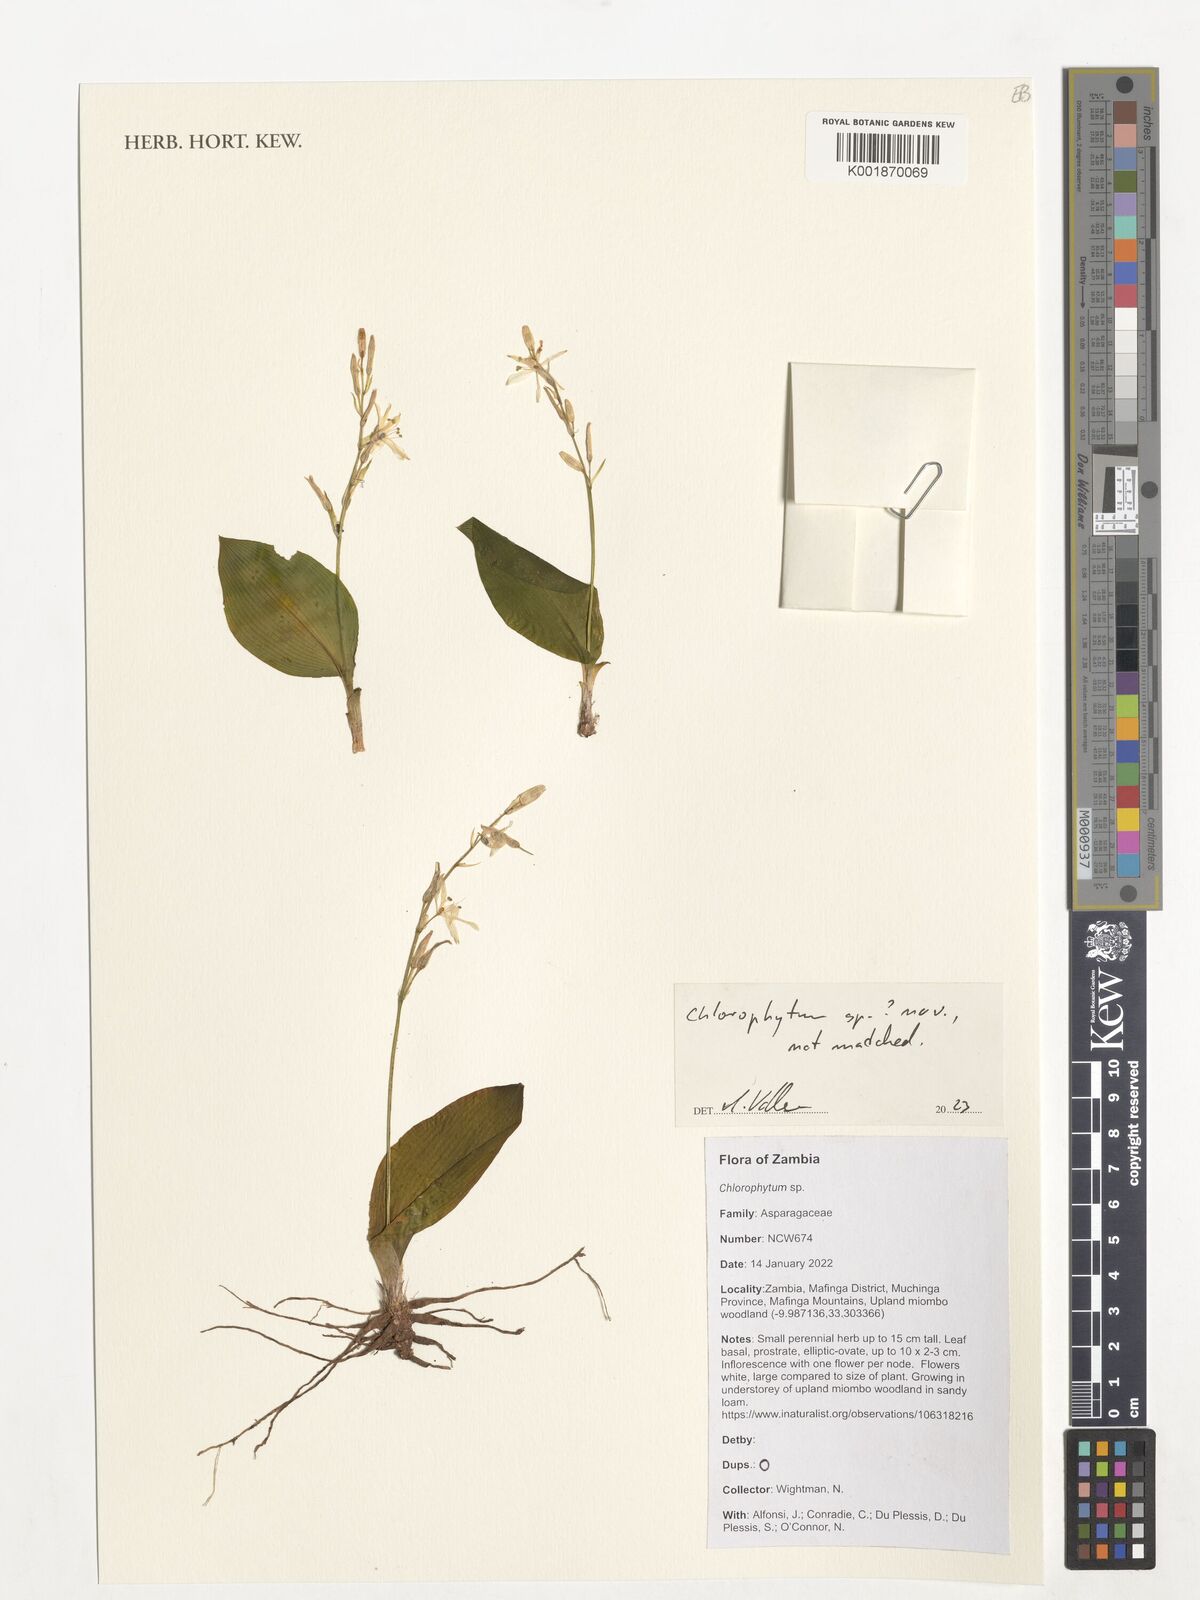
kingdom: Plantae
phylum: Tracheophyta
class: Liliopsida
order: Asparagales
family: Asparagaceae
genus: Chlorophytum
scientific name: Chlorophytum
